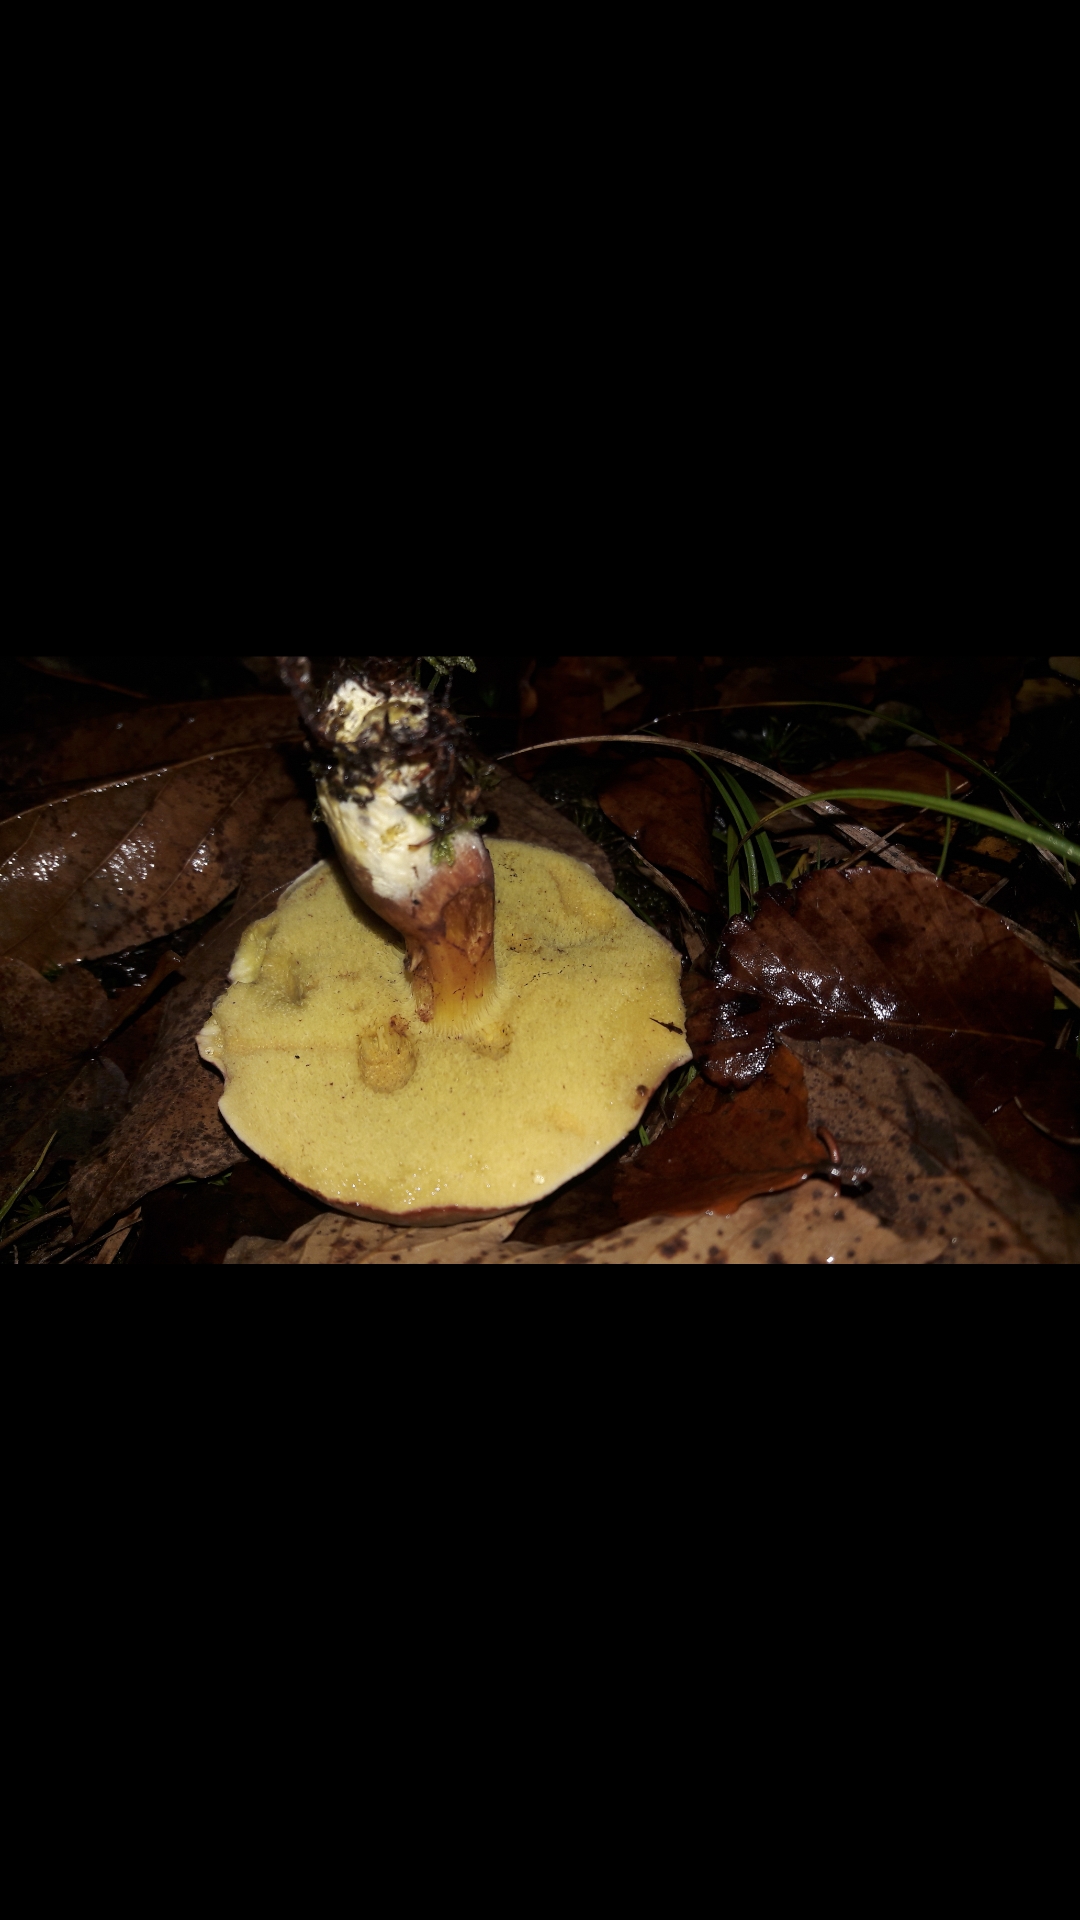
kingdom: Fungi
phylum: Basidiomycota
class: Agaricomycetes
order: Boletales
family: Boletaceae
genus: Xerocomellus
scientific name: Xerocomellus pruinatus
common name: dugget rørhat
